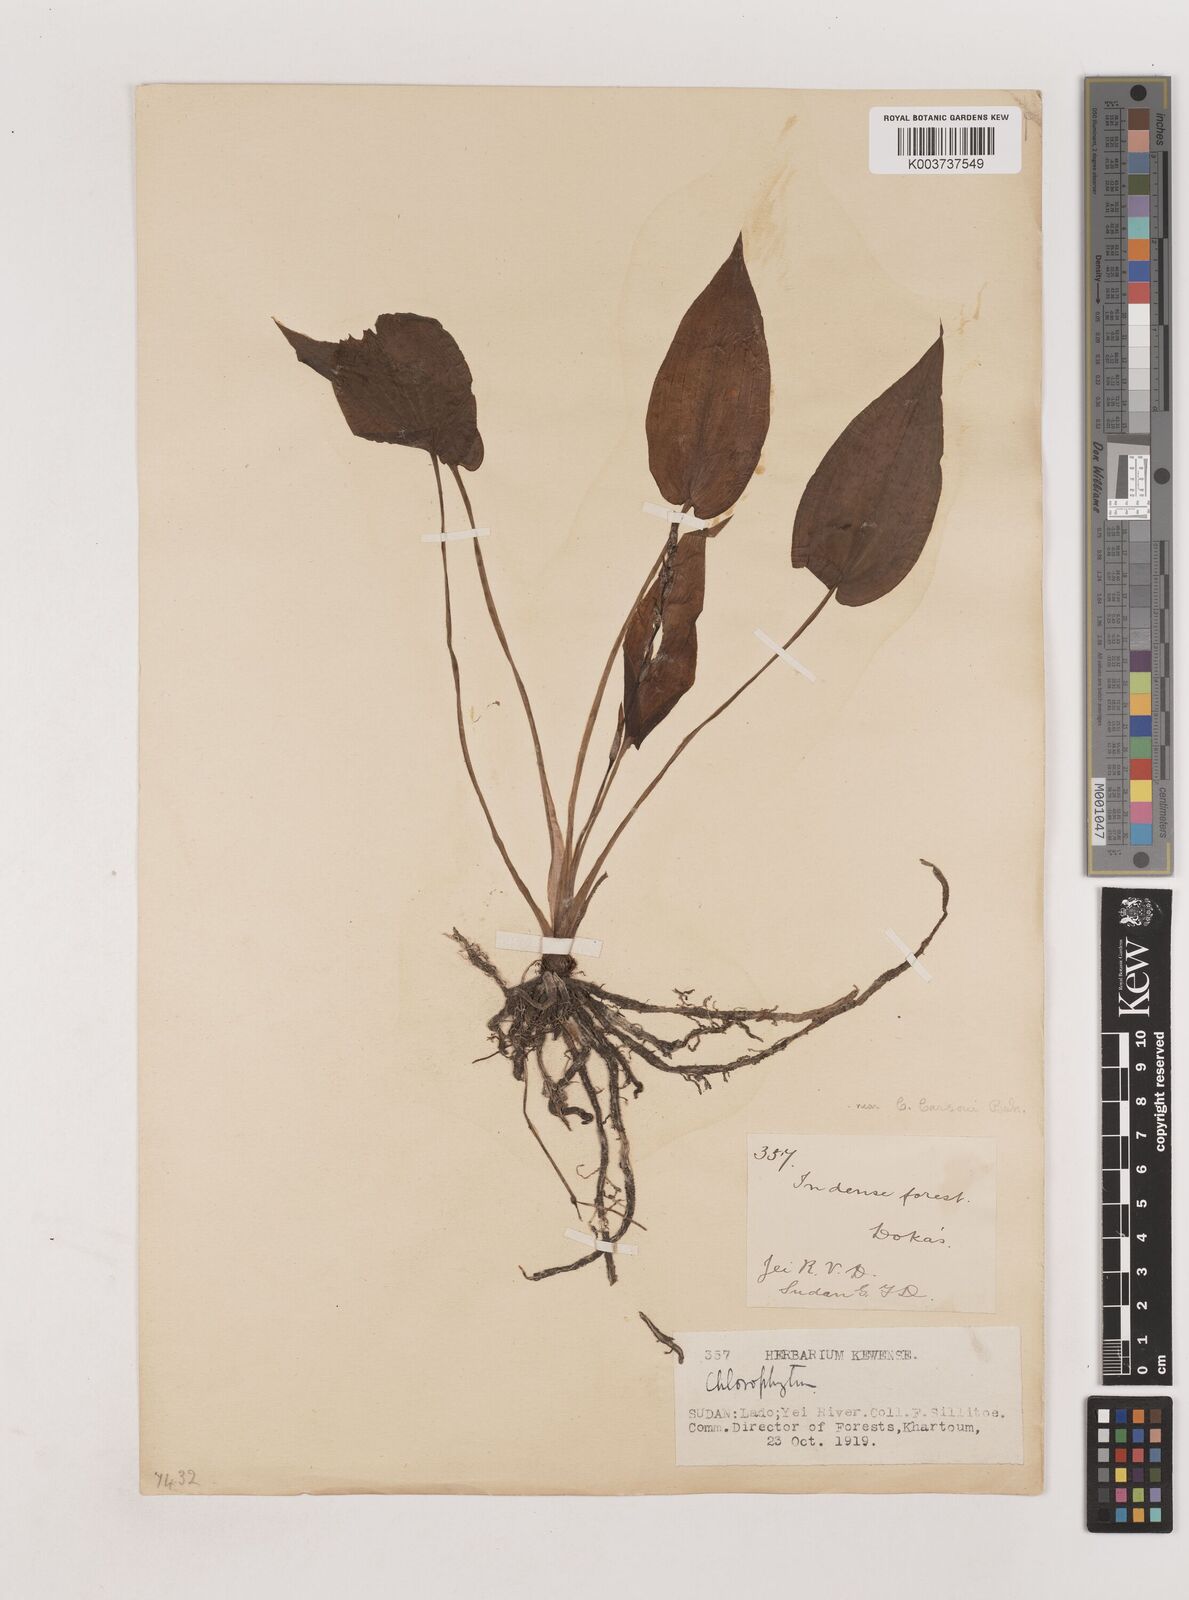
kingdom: Plantae
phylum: Tracheophyta
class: Liliopsida
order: Asparagales
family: Asparagaceae
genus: Chlorophytum
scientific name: Chlorophytum lancifolium
